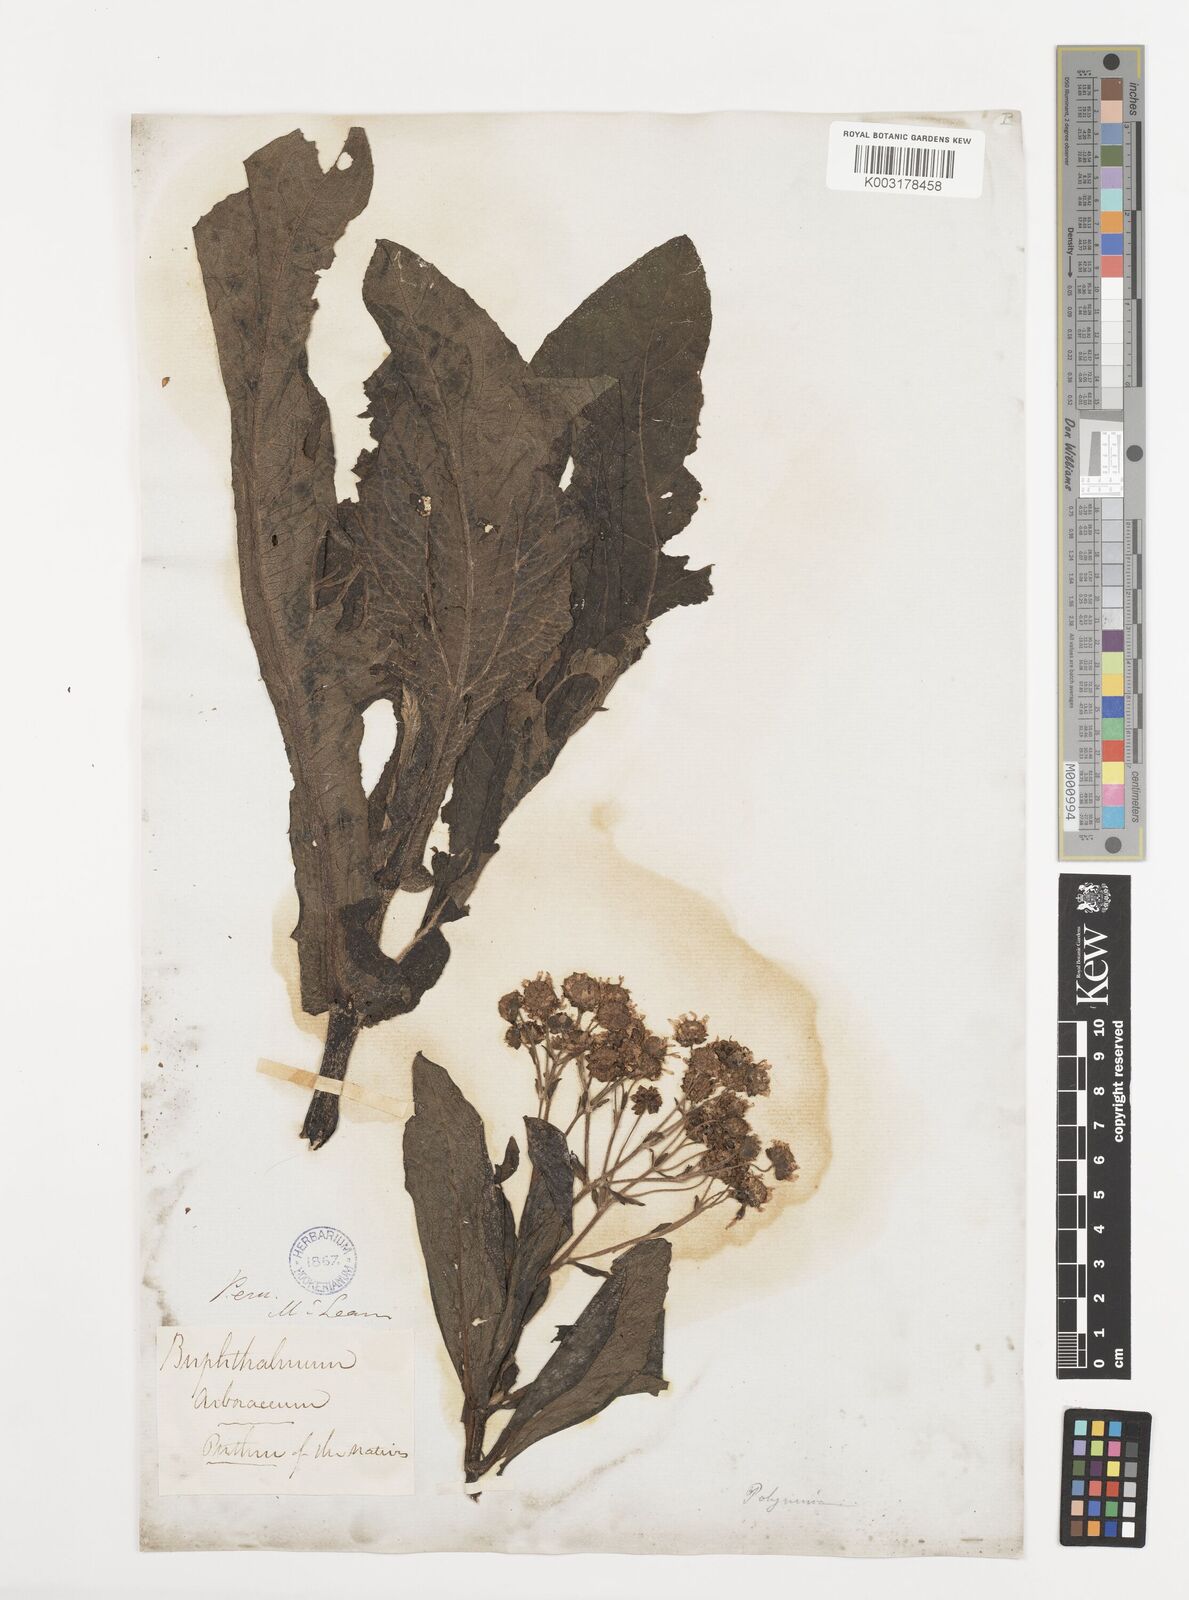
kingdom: Plantae
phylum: Tracheophyta
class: Magnoliopsida
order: Asterales
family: Asteraceae
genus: Smallanthus
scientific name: Smallanthus glabratus
